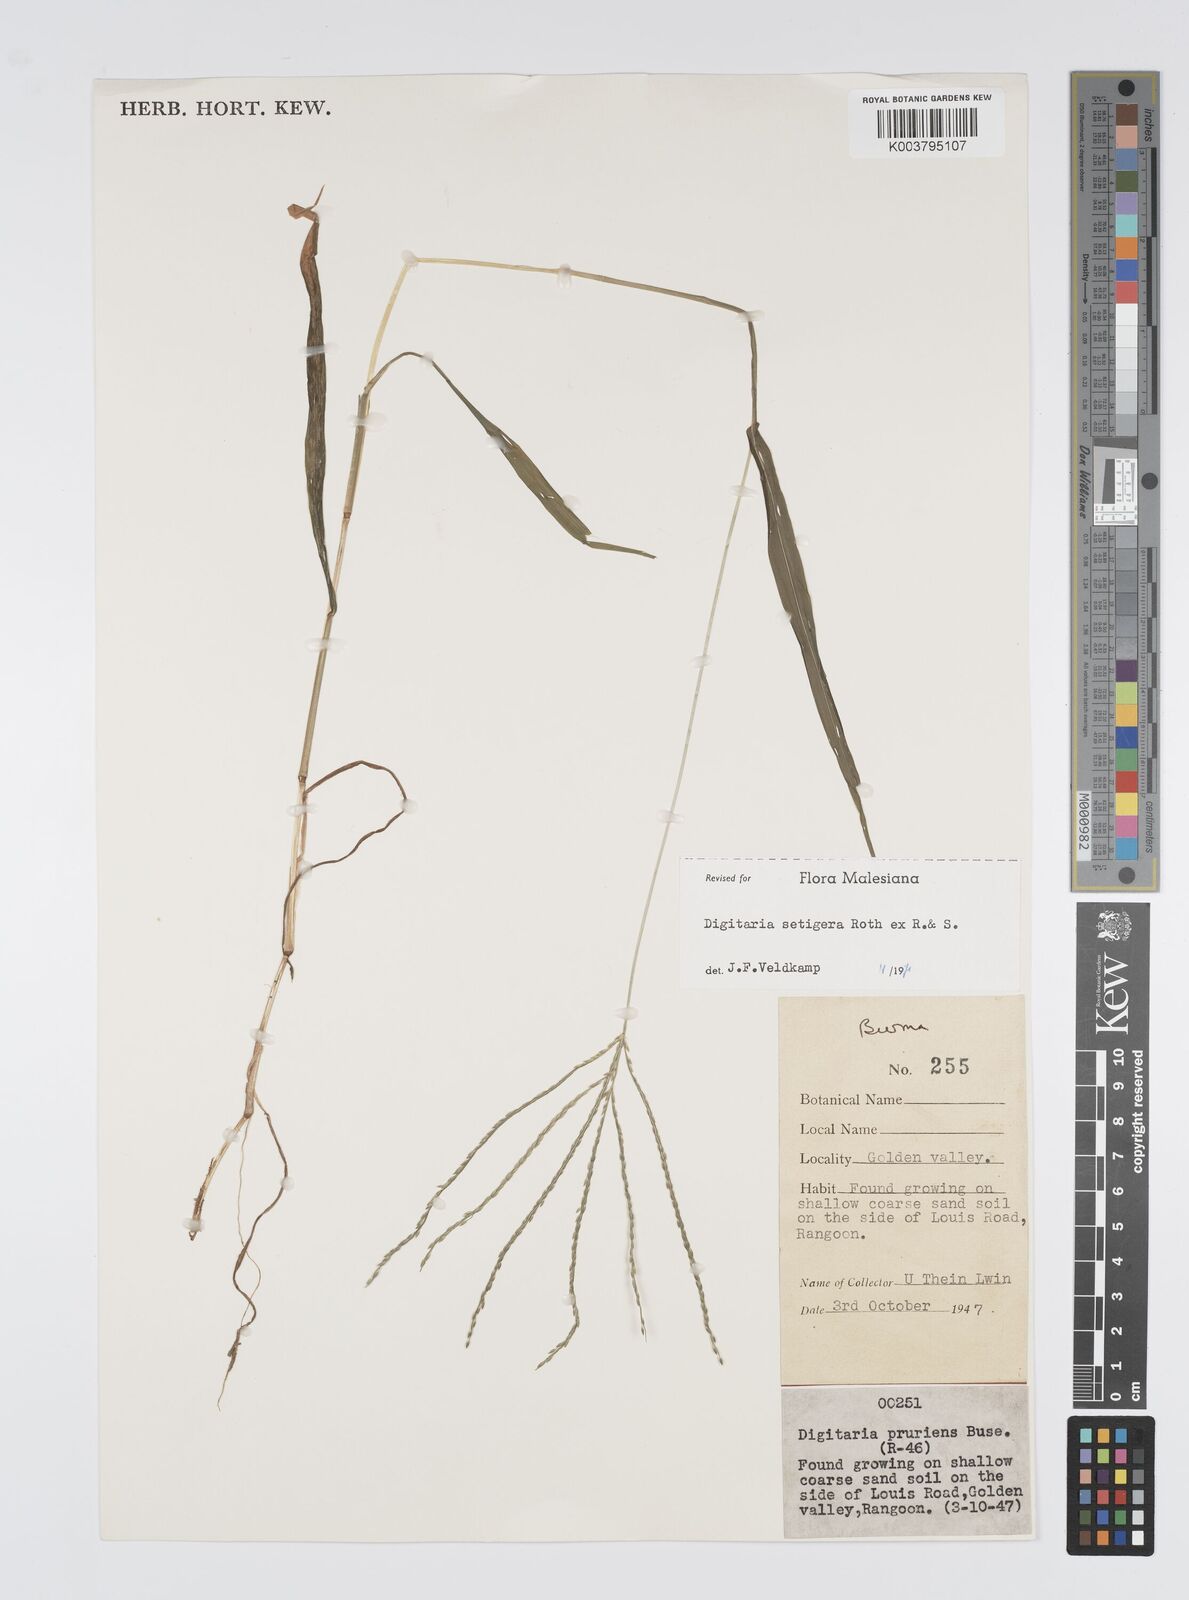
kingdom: Plantae
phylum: Tracheophyta
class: Liliopsida
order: Poales
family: Poaceae
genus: Digitaria
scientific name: Digitaria setigera
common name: East indian crabgrass
